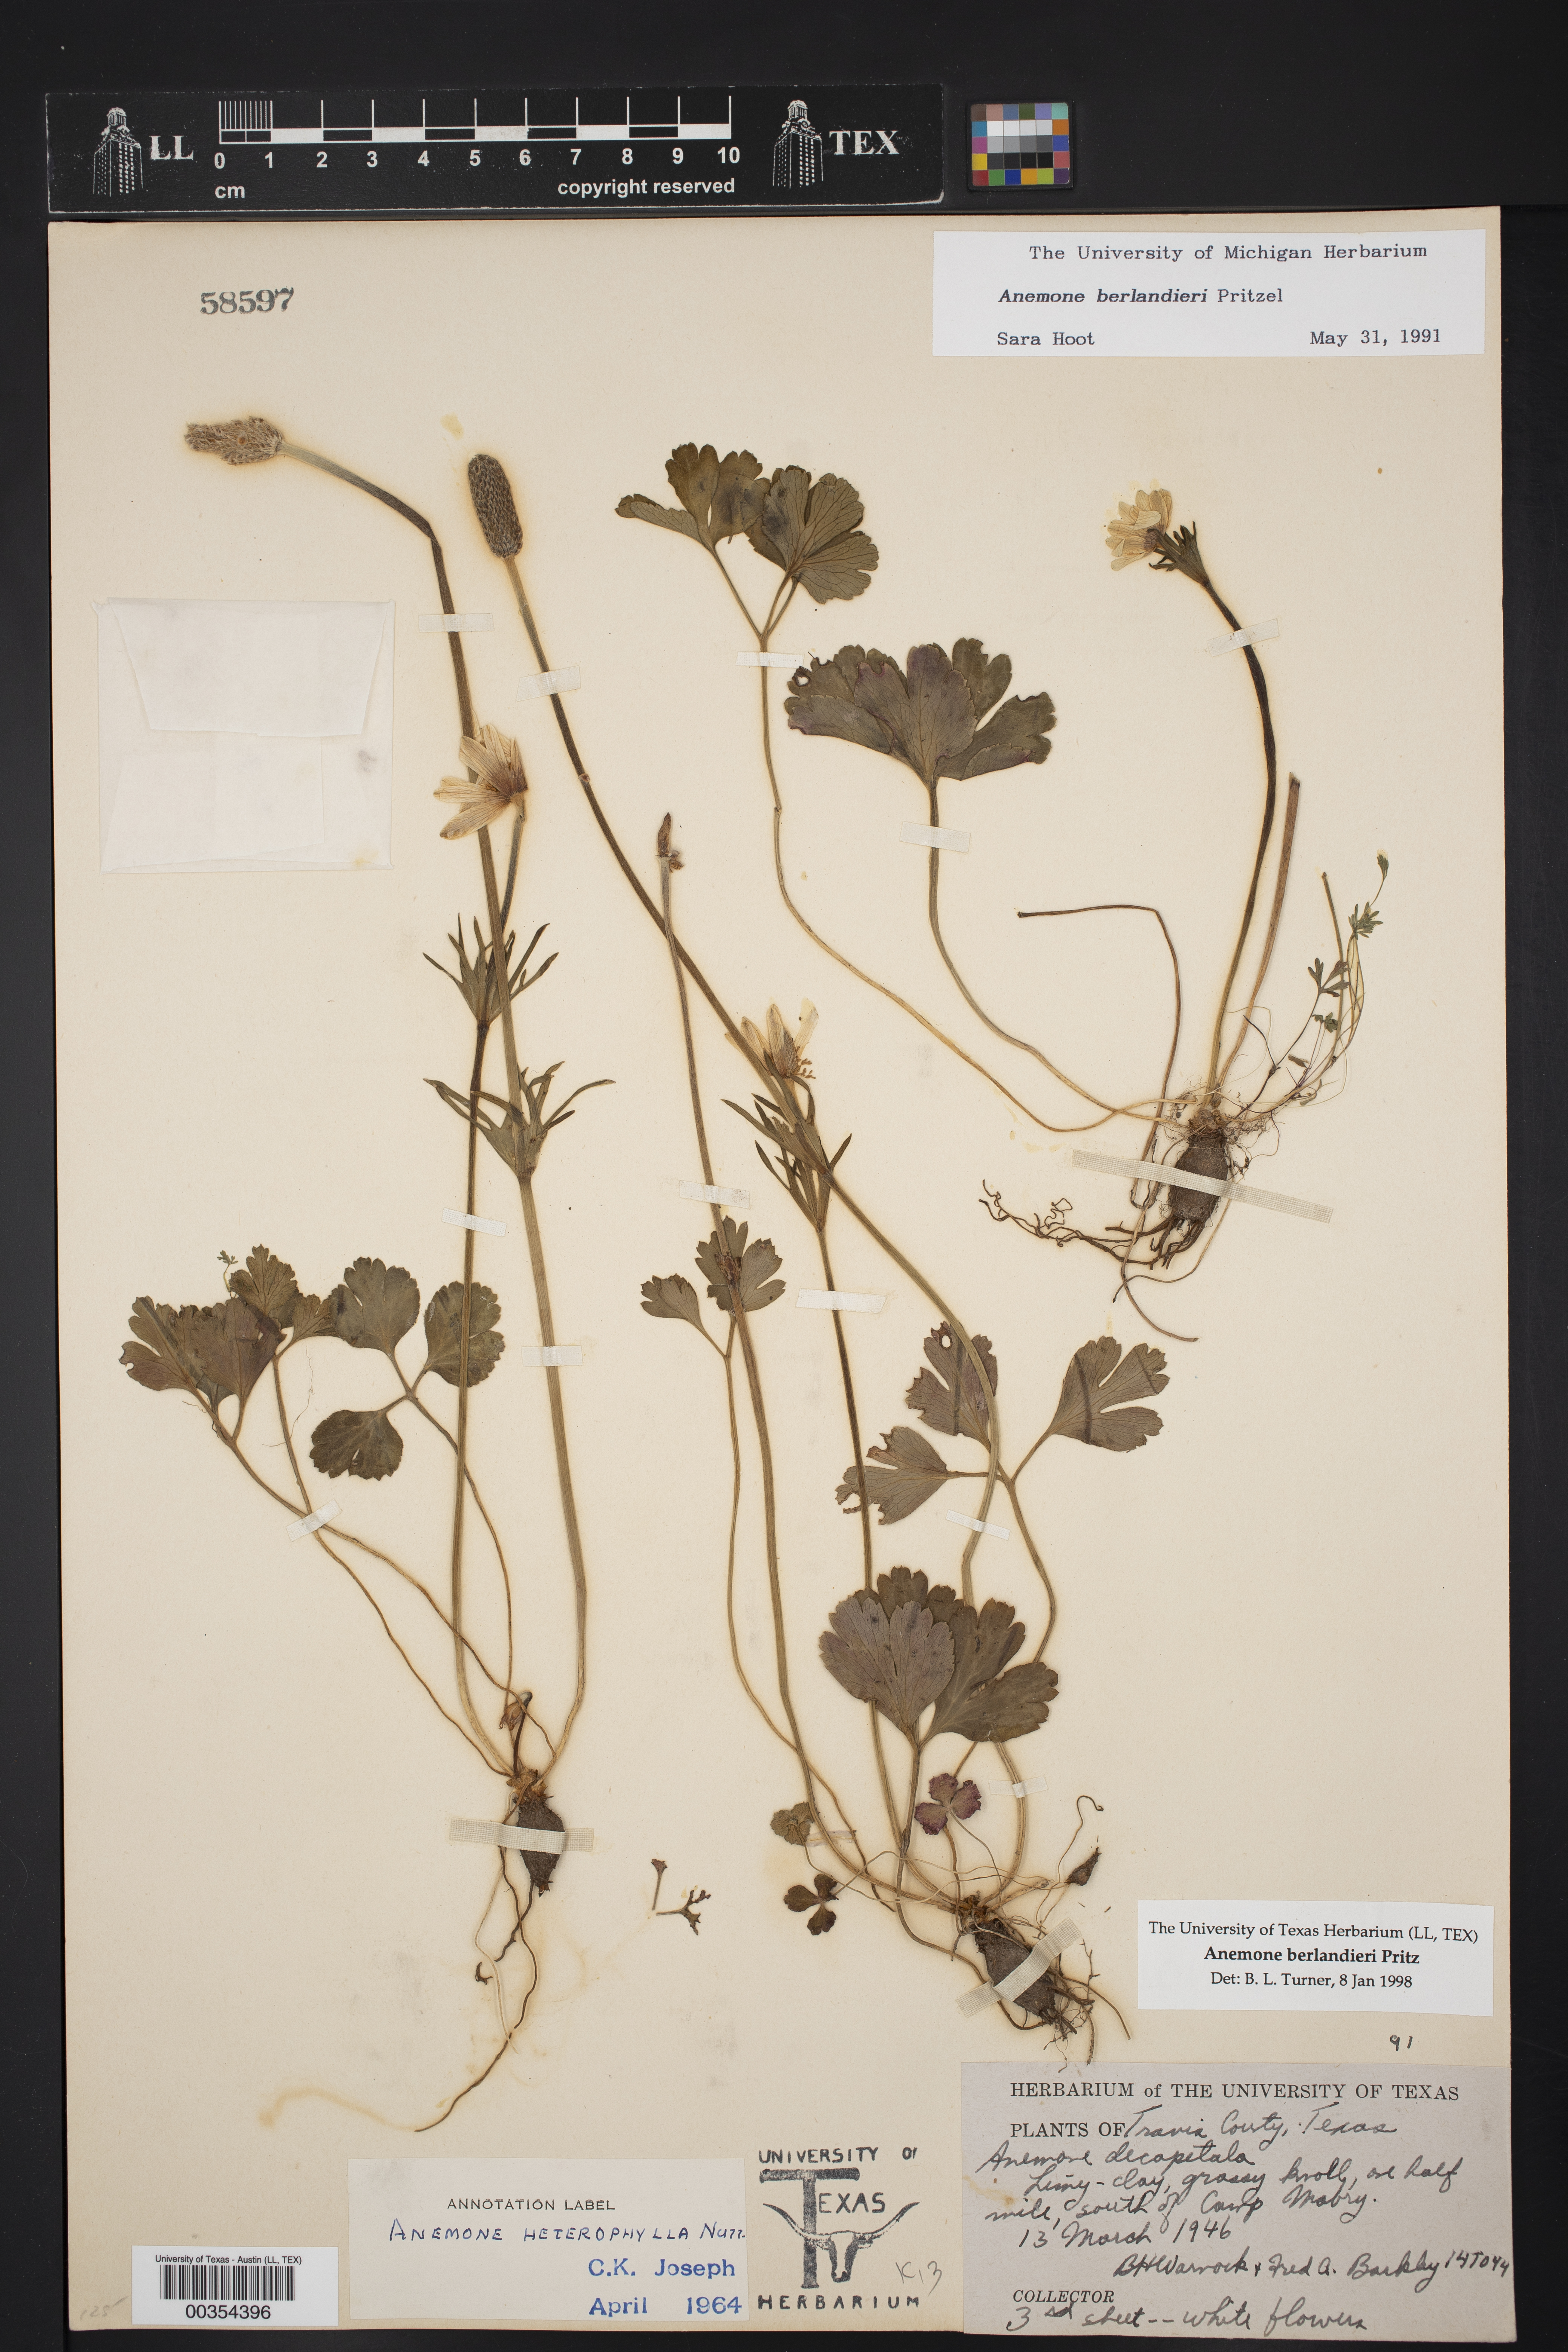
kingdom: Plantae
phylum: Tracheophyta
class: Magnoliopsida
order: Ranunculales
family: Ranunculaceae
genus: Anemone
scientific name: Anemone berlandieri
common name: Ten-petal anemone
